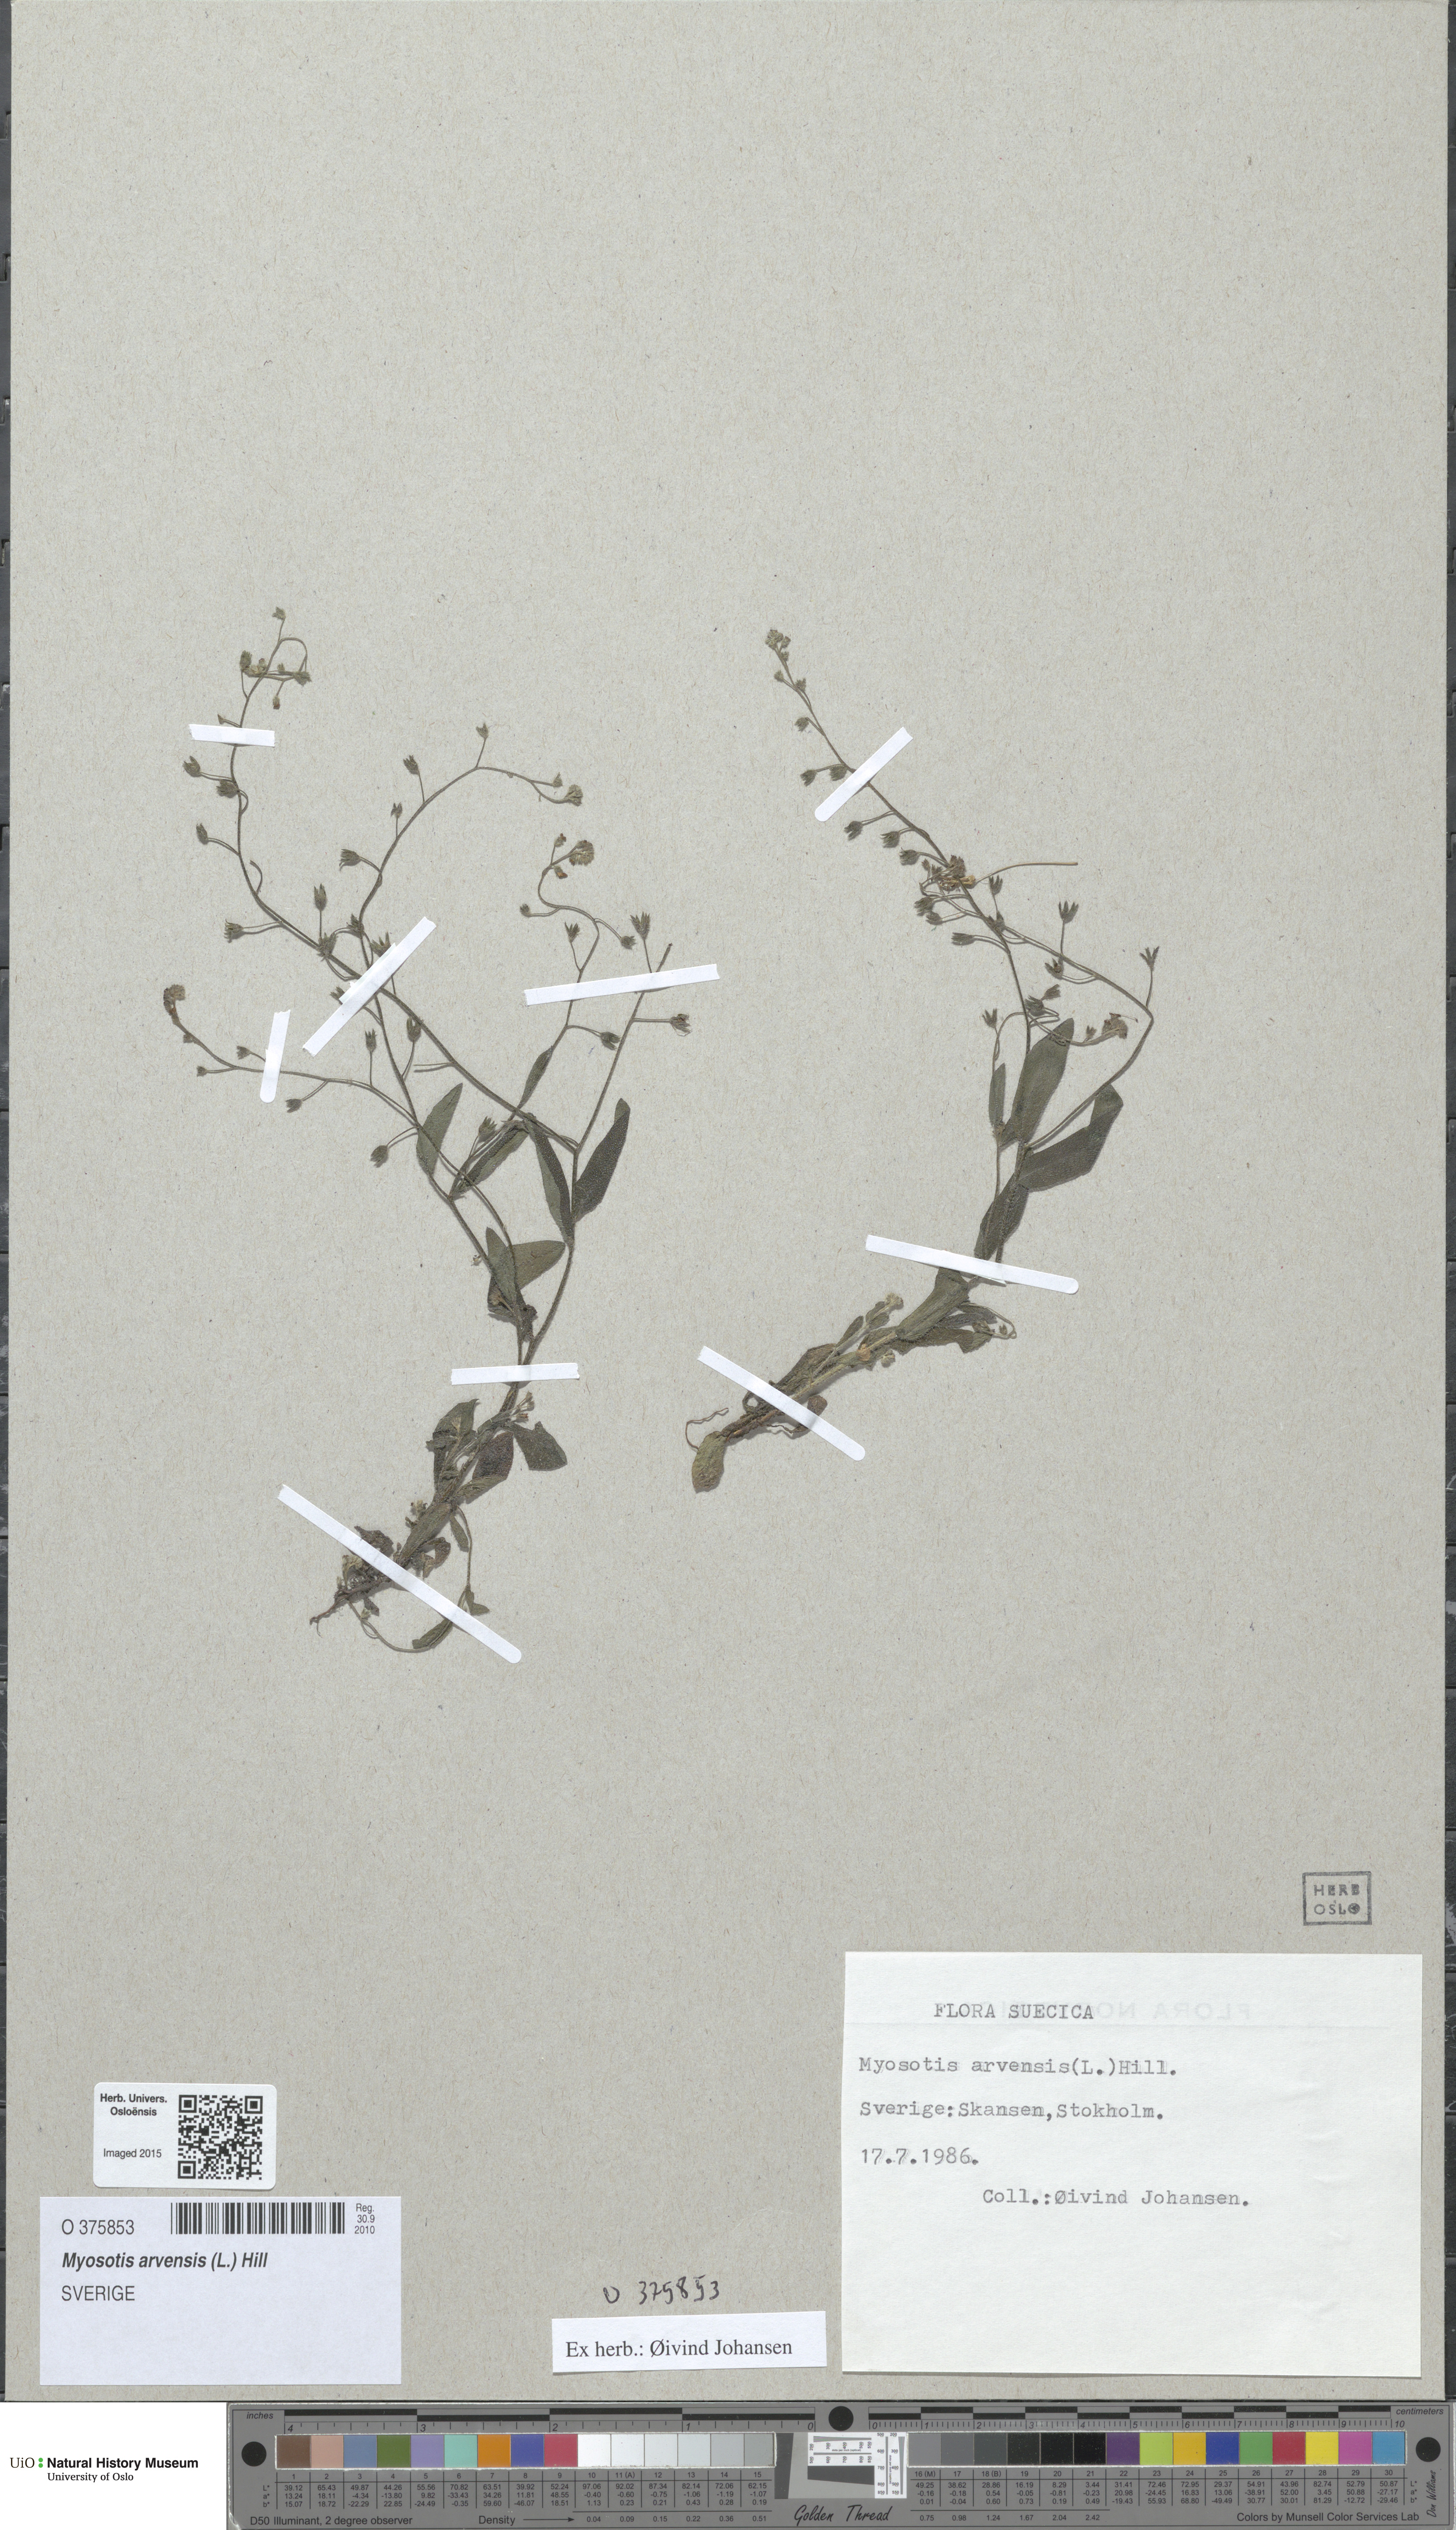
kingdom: Plantae
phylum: Tracheophyta
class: Magnoliopsida
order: Boraginales
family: Boraginaceae
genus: Myosotis
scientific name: Myosotis arvensis
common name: Field forget-me-not
